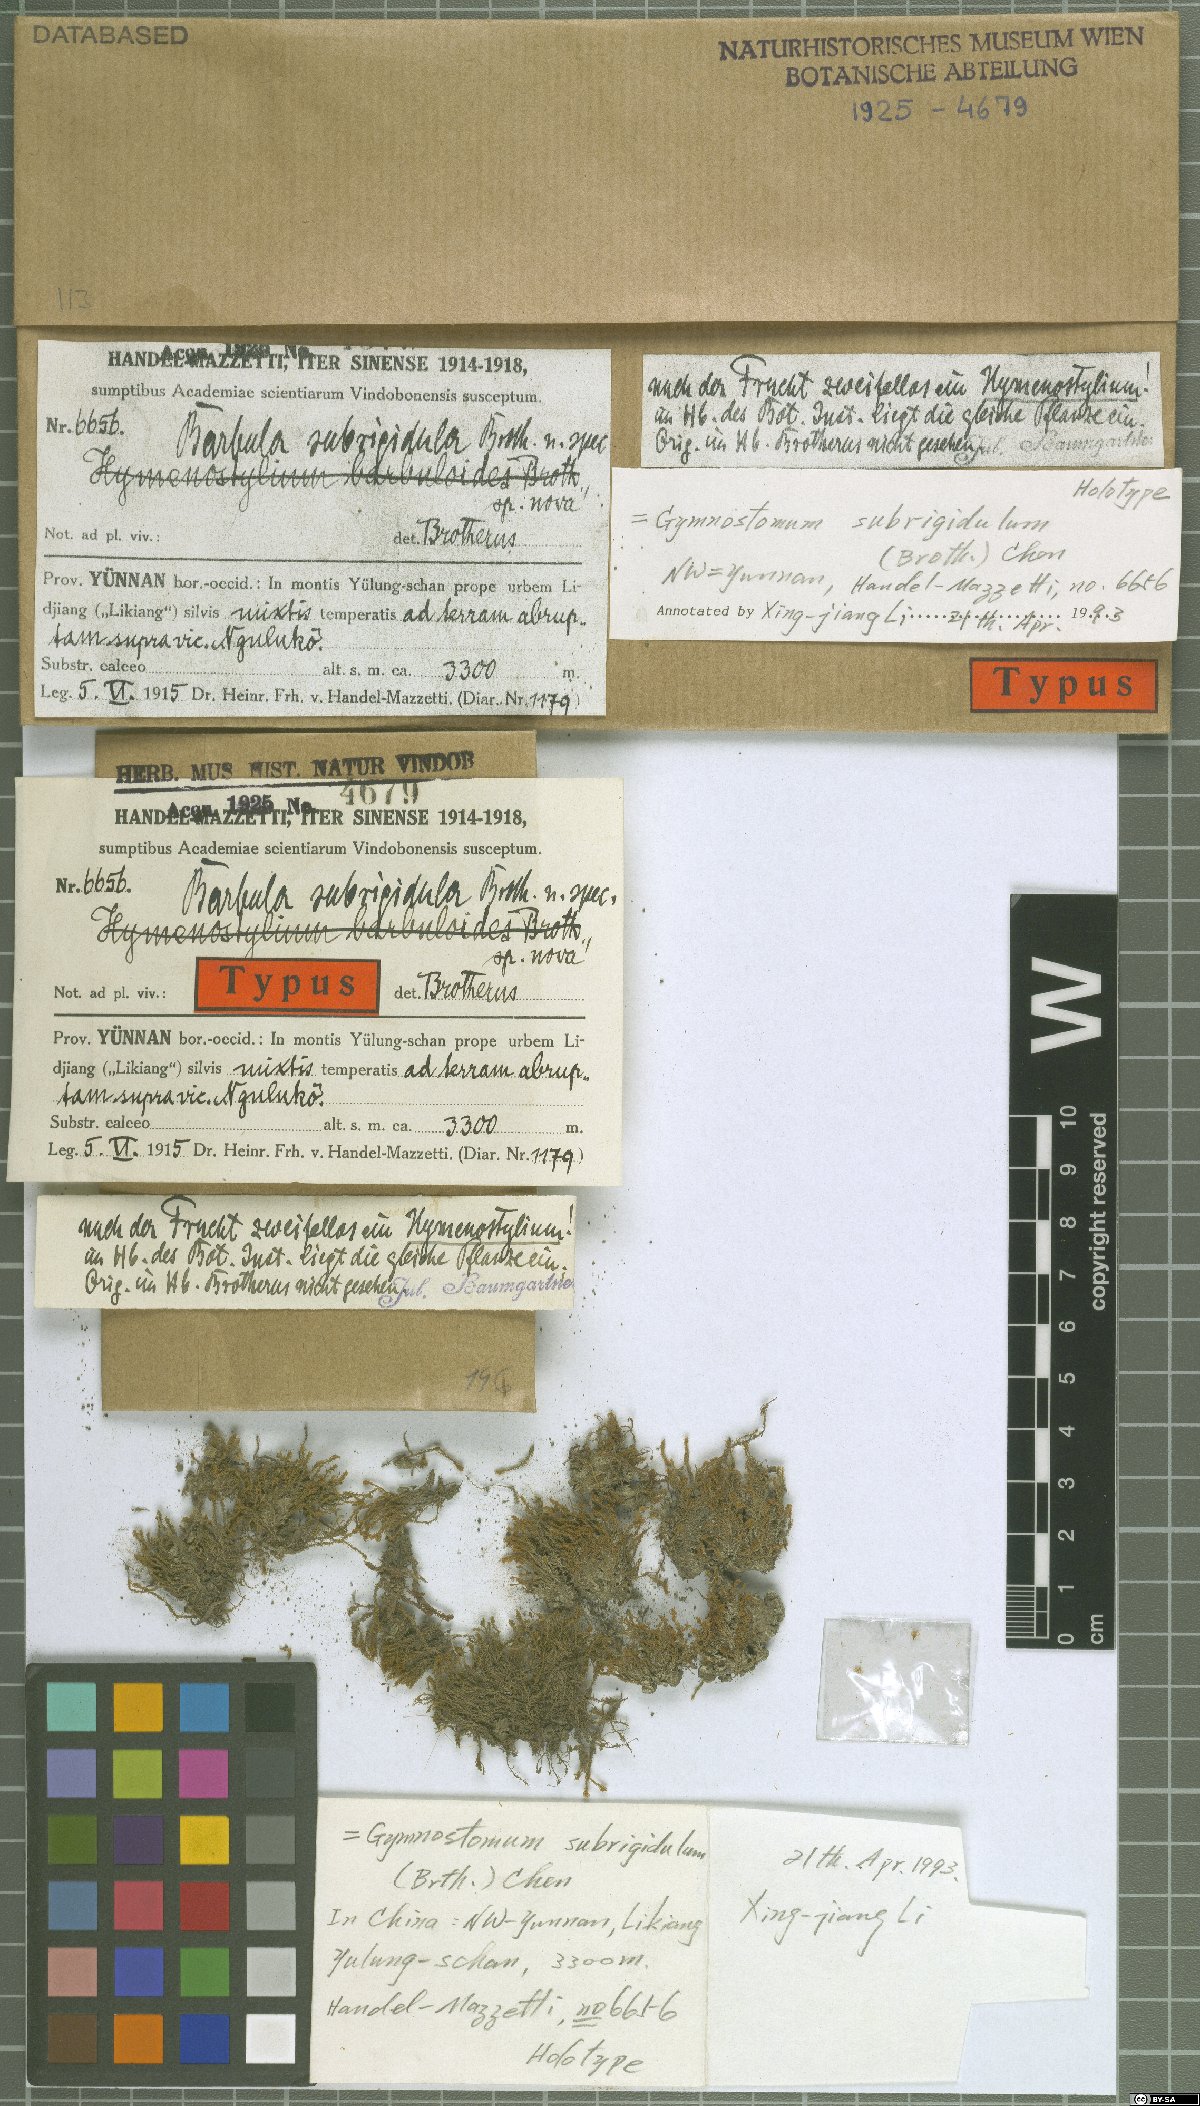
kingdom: Plantae
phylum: Bryophyta
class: Bryopsida
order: Pottiales
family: Pottiaceae
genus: Hymenostylium
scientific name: Hymenostylium annotinum
